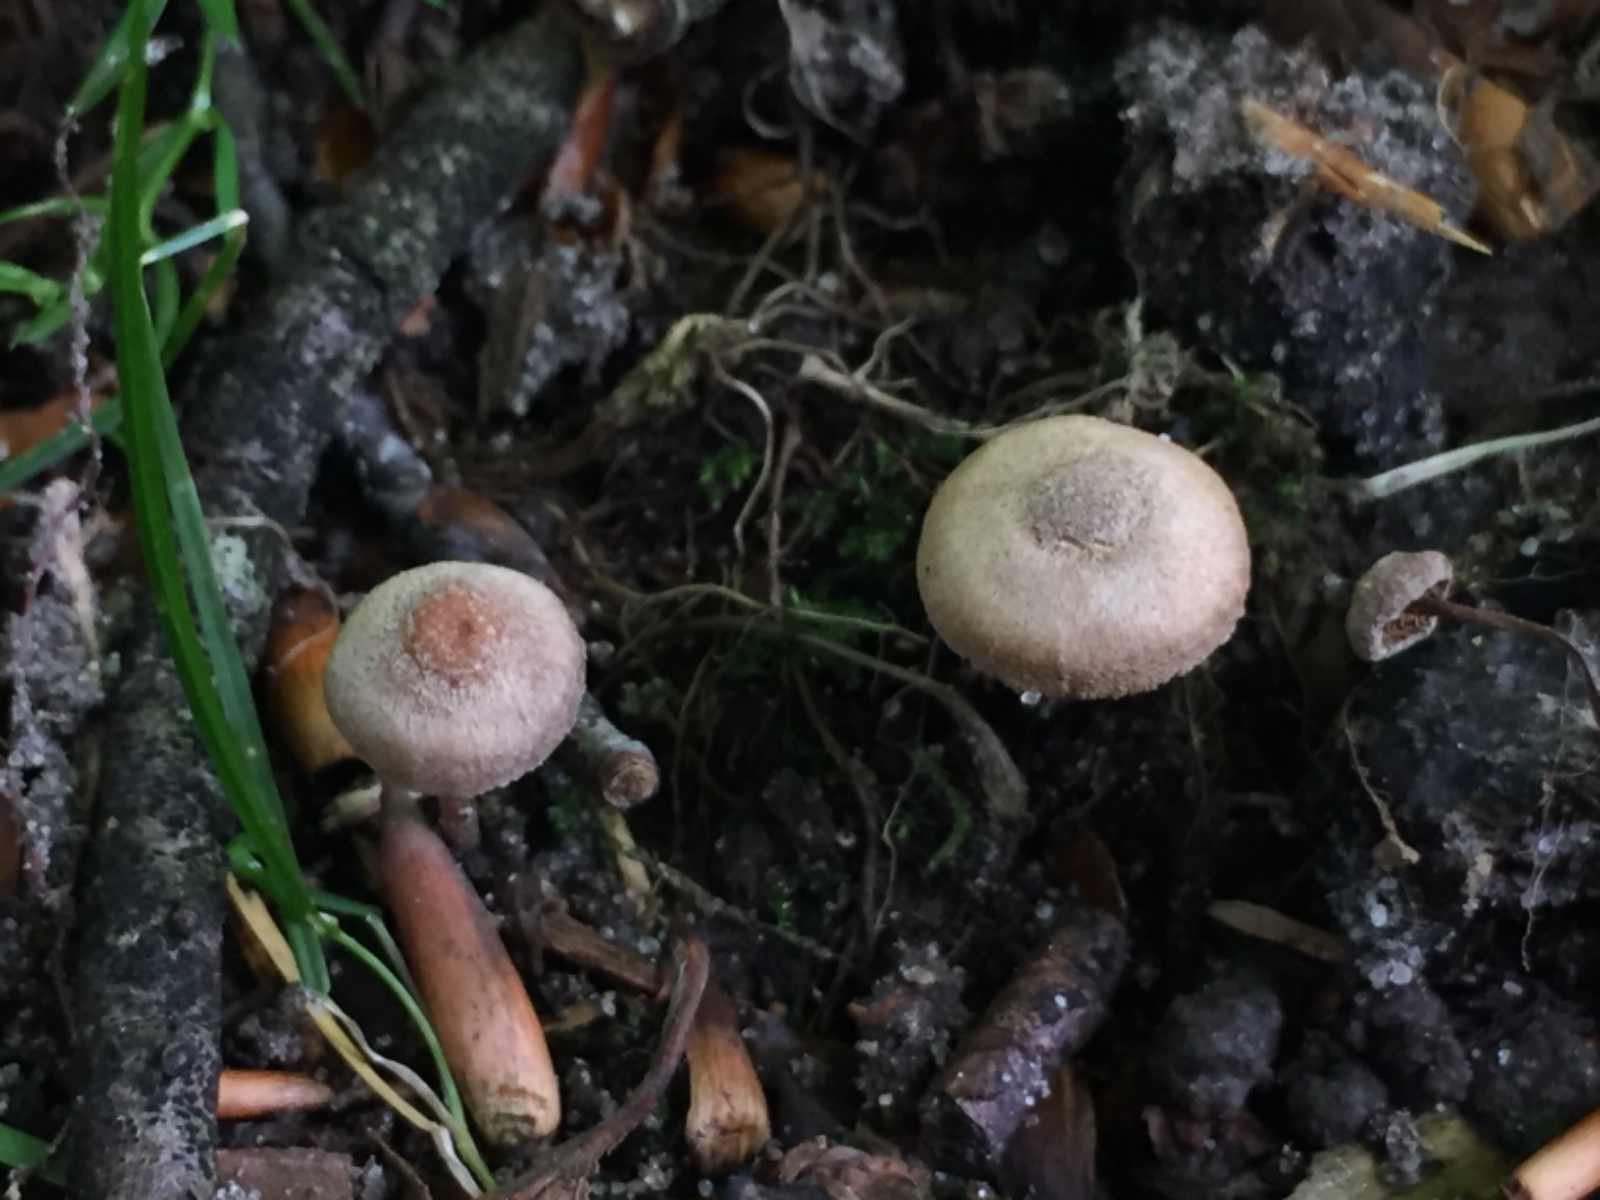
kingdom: Fungi
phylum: Basidiomycota
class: Agaricomycetes
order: Agaricales
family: Inocybaceae
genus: Inocybe
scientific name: Inocybe petiginosa
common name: liden trævlhat
